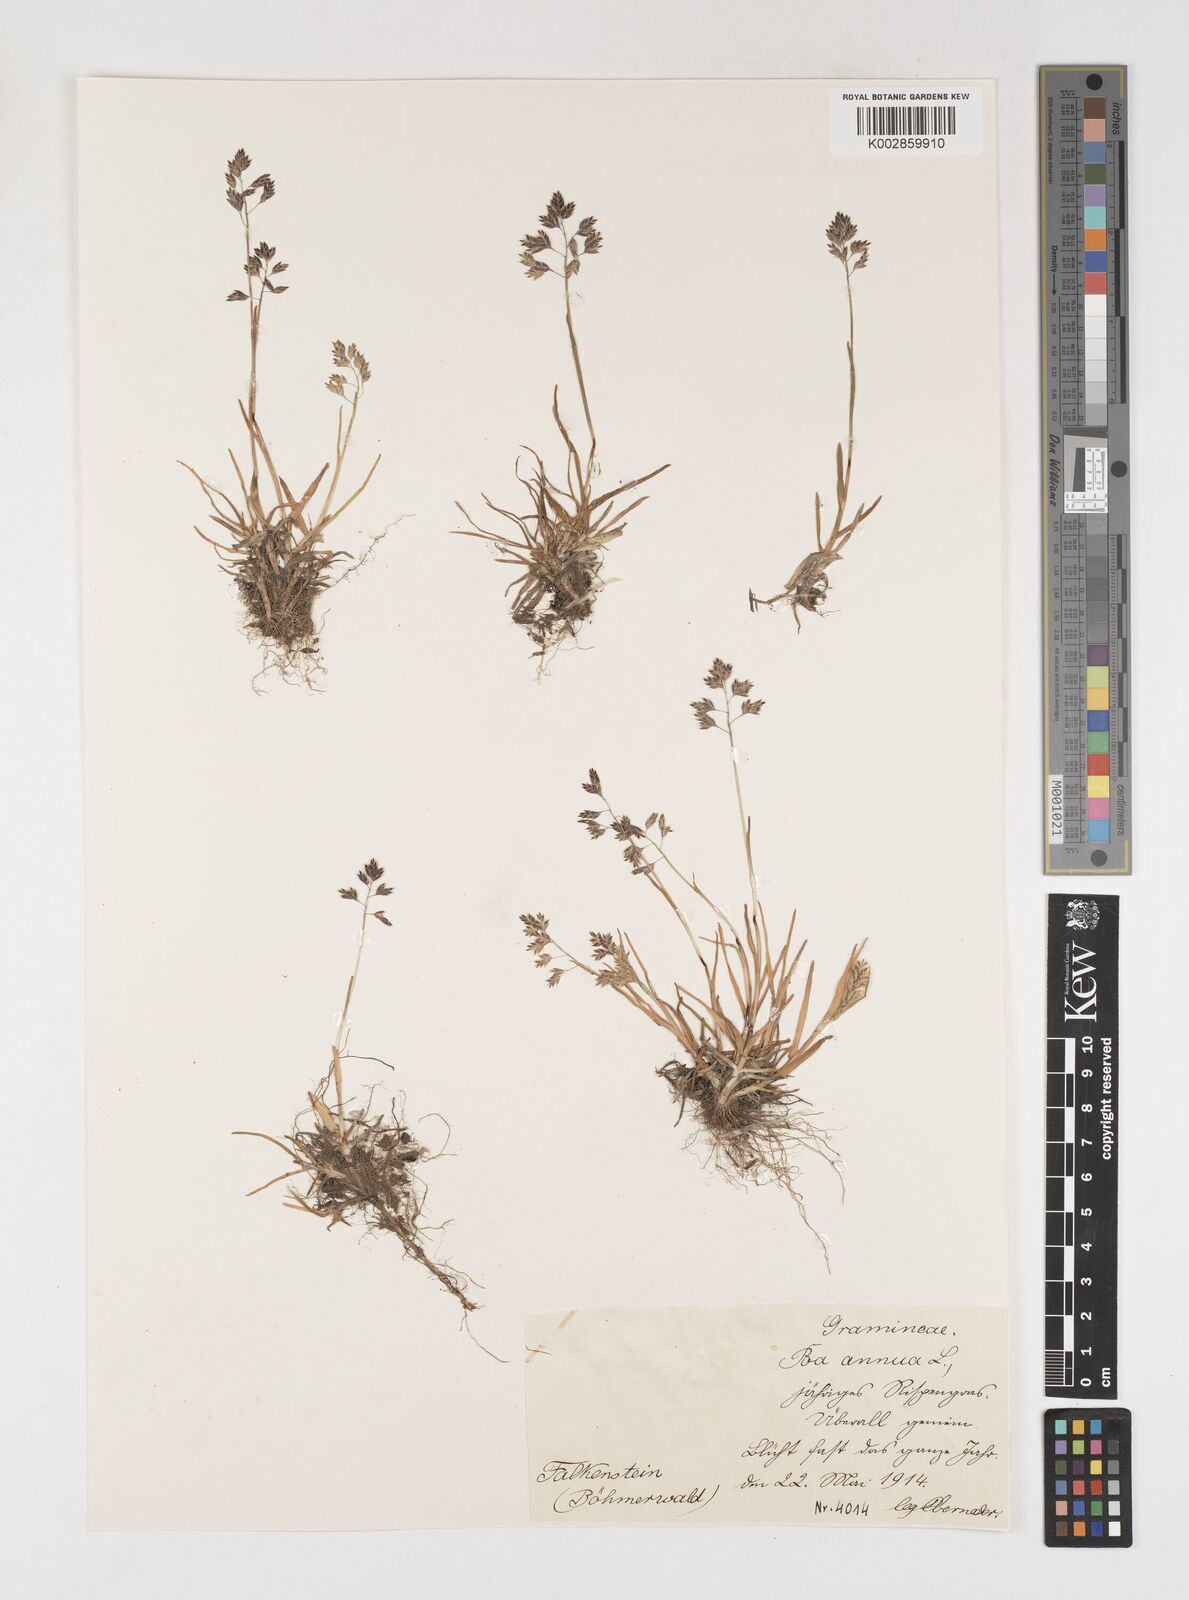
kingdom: Plantae
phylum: Tracheophyta
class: Liliopsida
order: Poales
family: Poaceae
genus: Poa
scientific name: Poa annua
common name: Annual bluegrass
